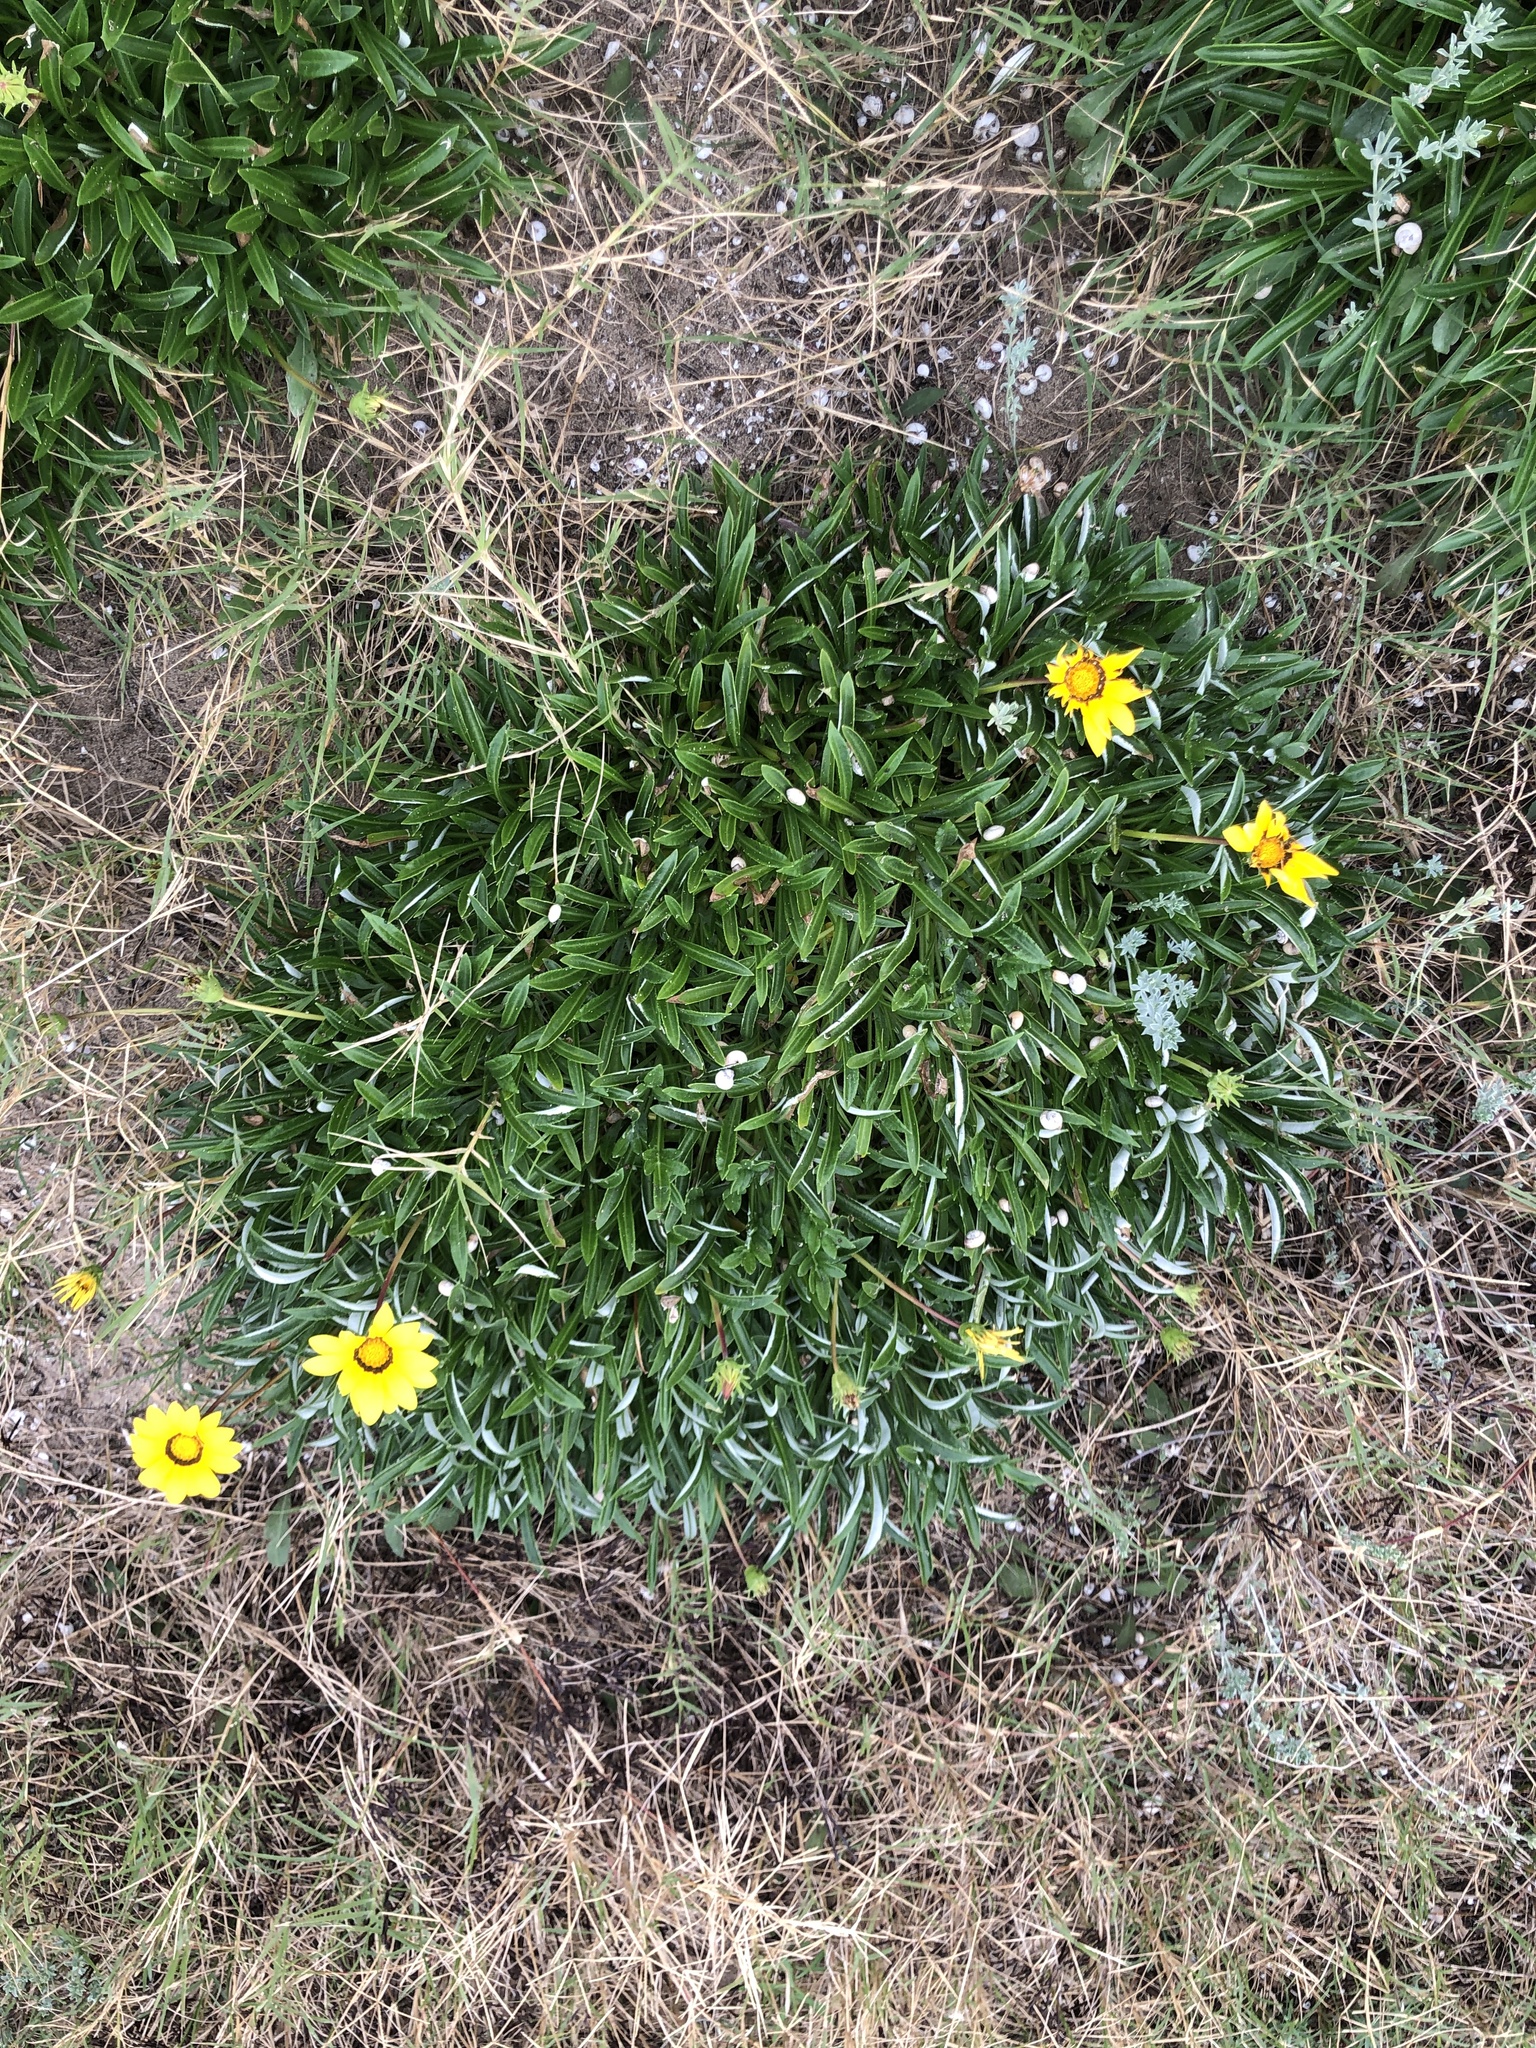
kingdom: Plantae
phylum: Tracheophyta
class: Magnoliopsida
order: Asterales
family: Asteraceae
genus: Gazania
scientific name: Gazania rigens
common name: Treasureflower
